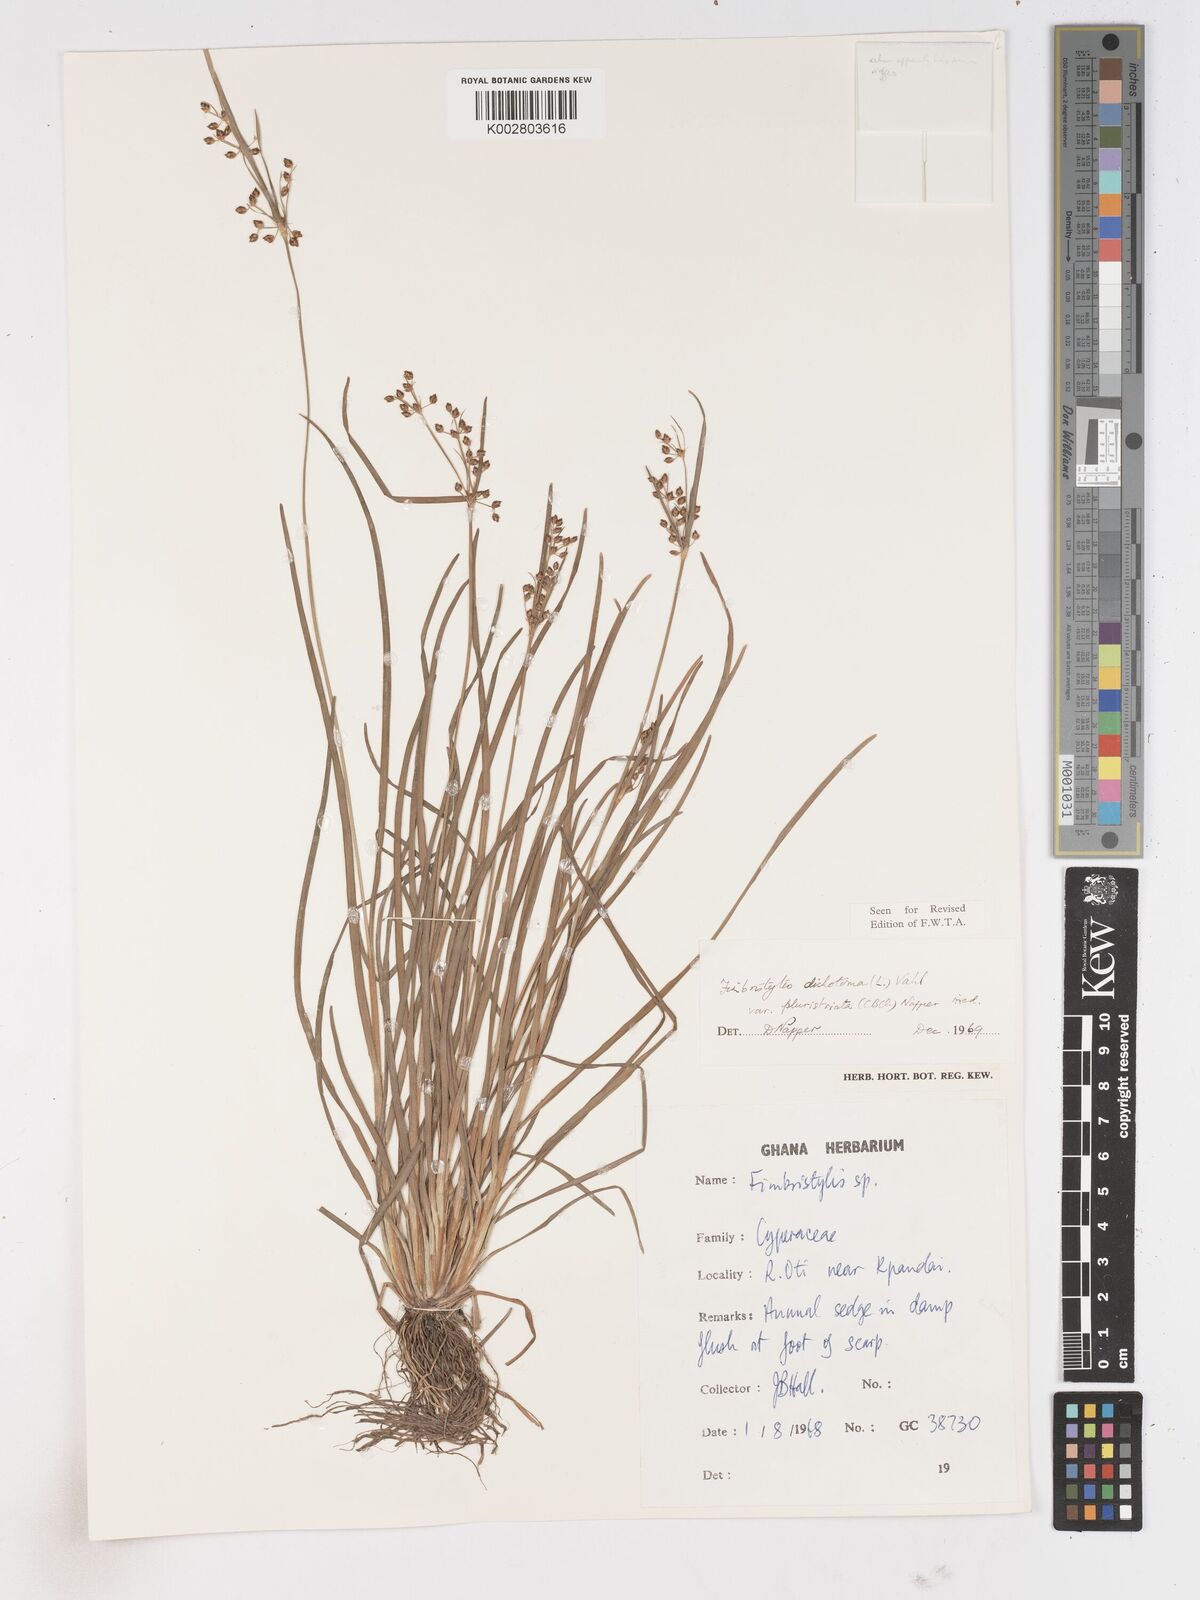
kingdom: Plantae
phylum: Tracheophyta
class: Liliopsida
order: Poales
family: Cyperaceae
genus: Fimbristylis
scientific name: Fimbristylis dichotoma
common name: Forked fimbry
